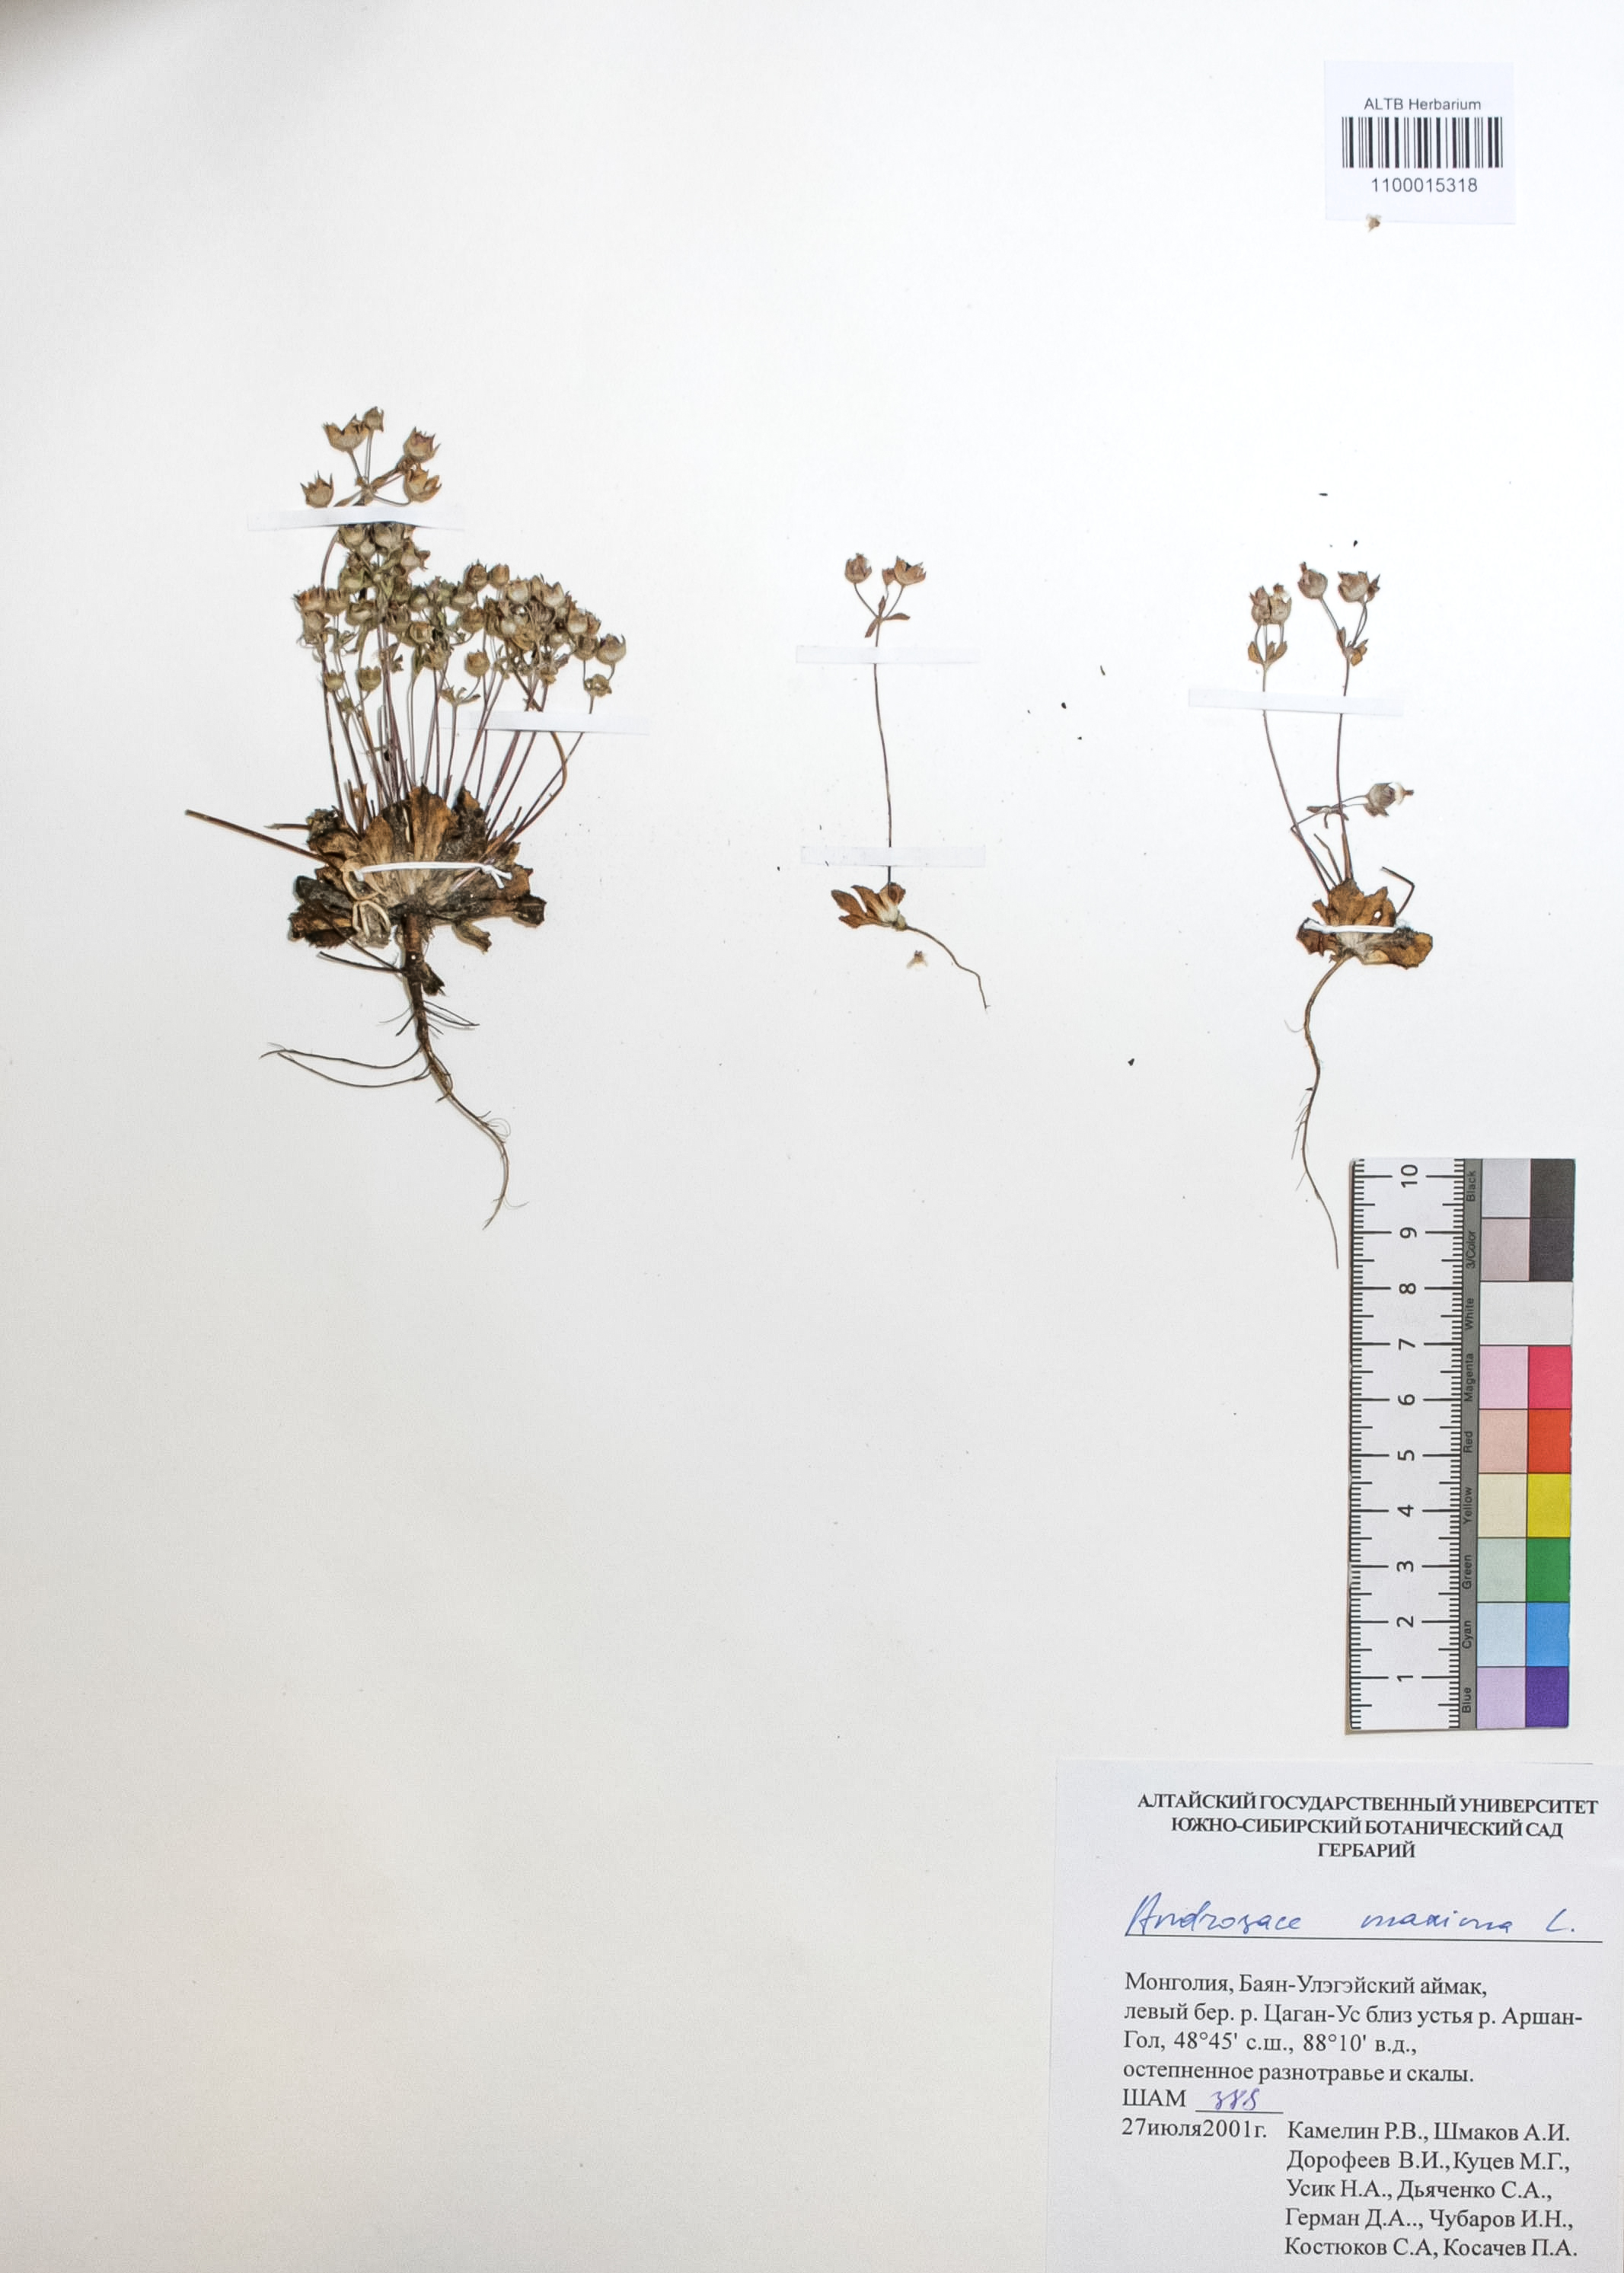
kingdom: Plantae
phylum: Tracheophyta
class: Magnoliopsida
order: Ericales
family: Primulaceae
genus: Androsace
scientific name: Androsace maxima
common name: Annual androsace
